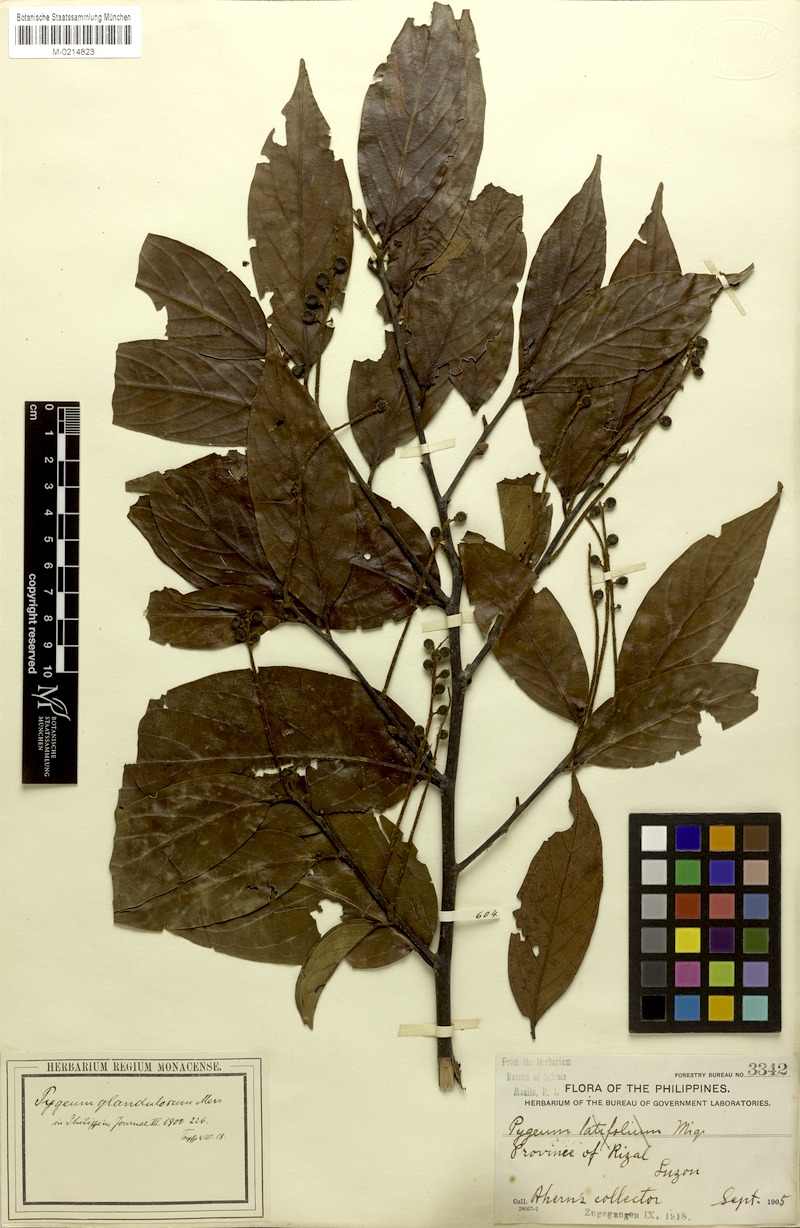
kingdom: Plantae
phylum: Tracheophyta
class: Magnoliopsida
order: Rosales
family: Rosaceae
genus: Prunus
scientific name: Prunus marsupialis
